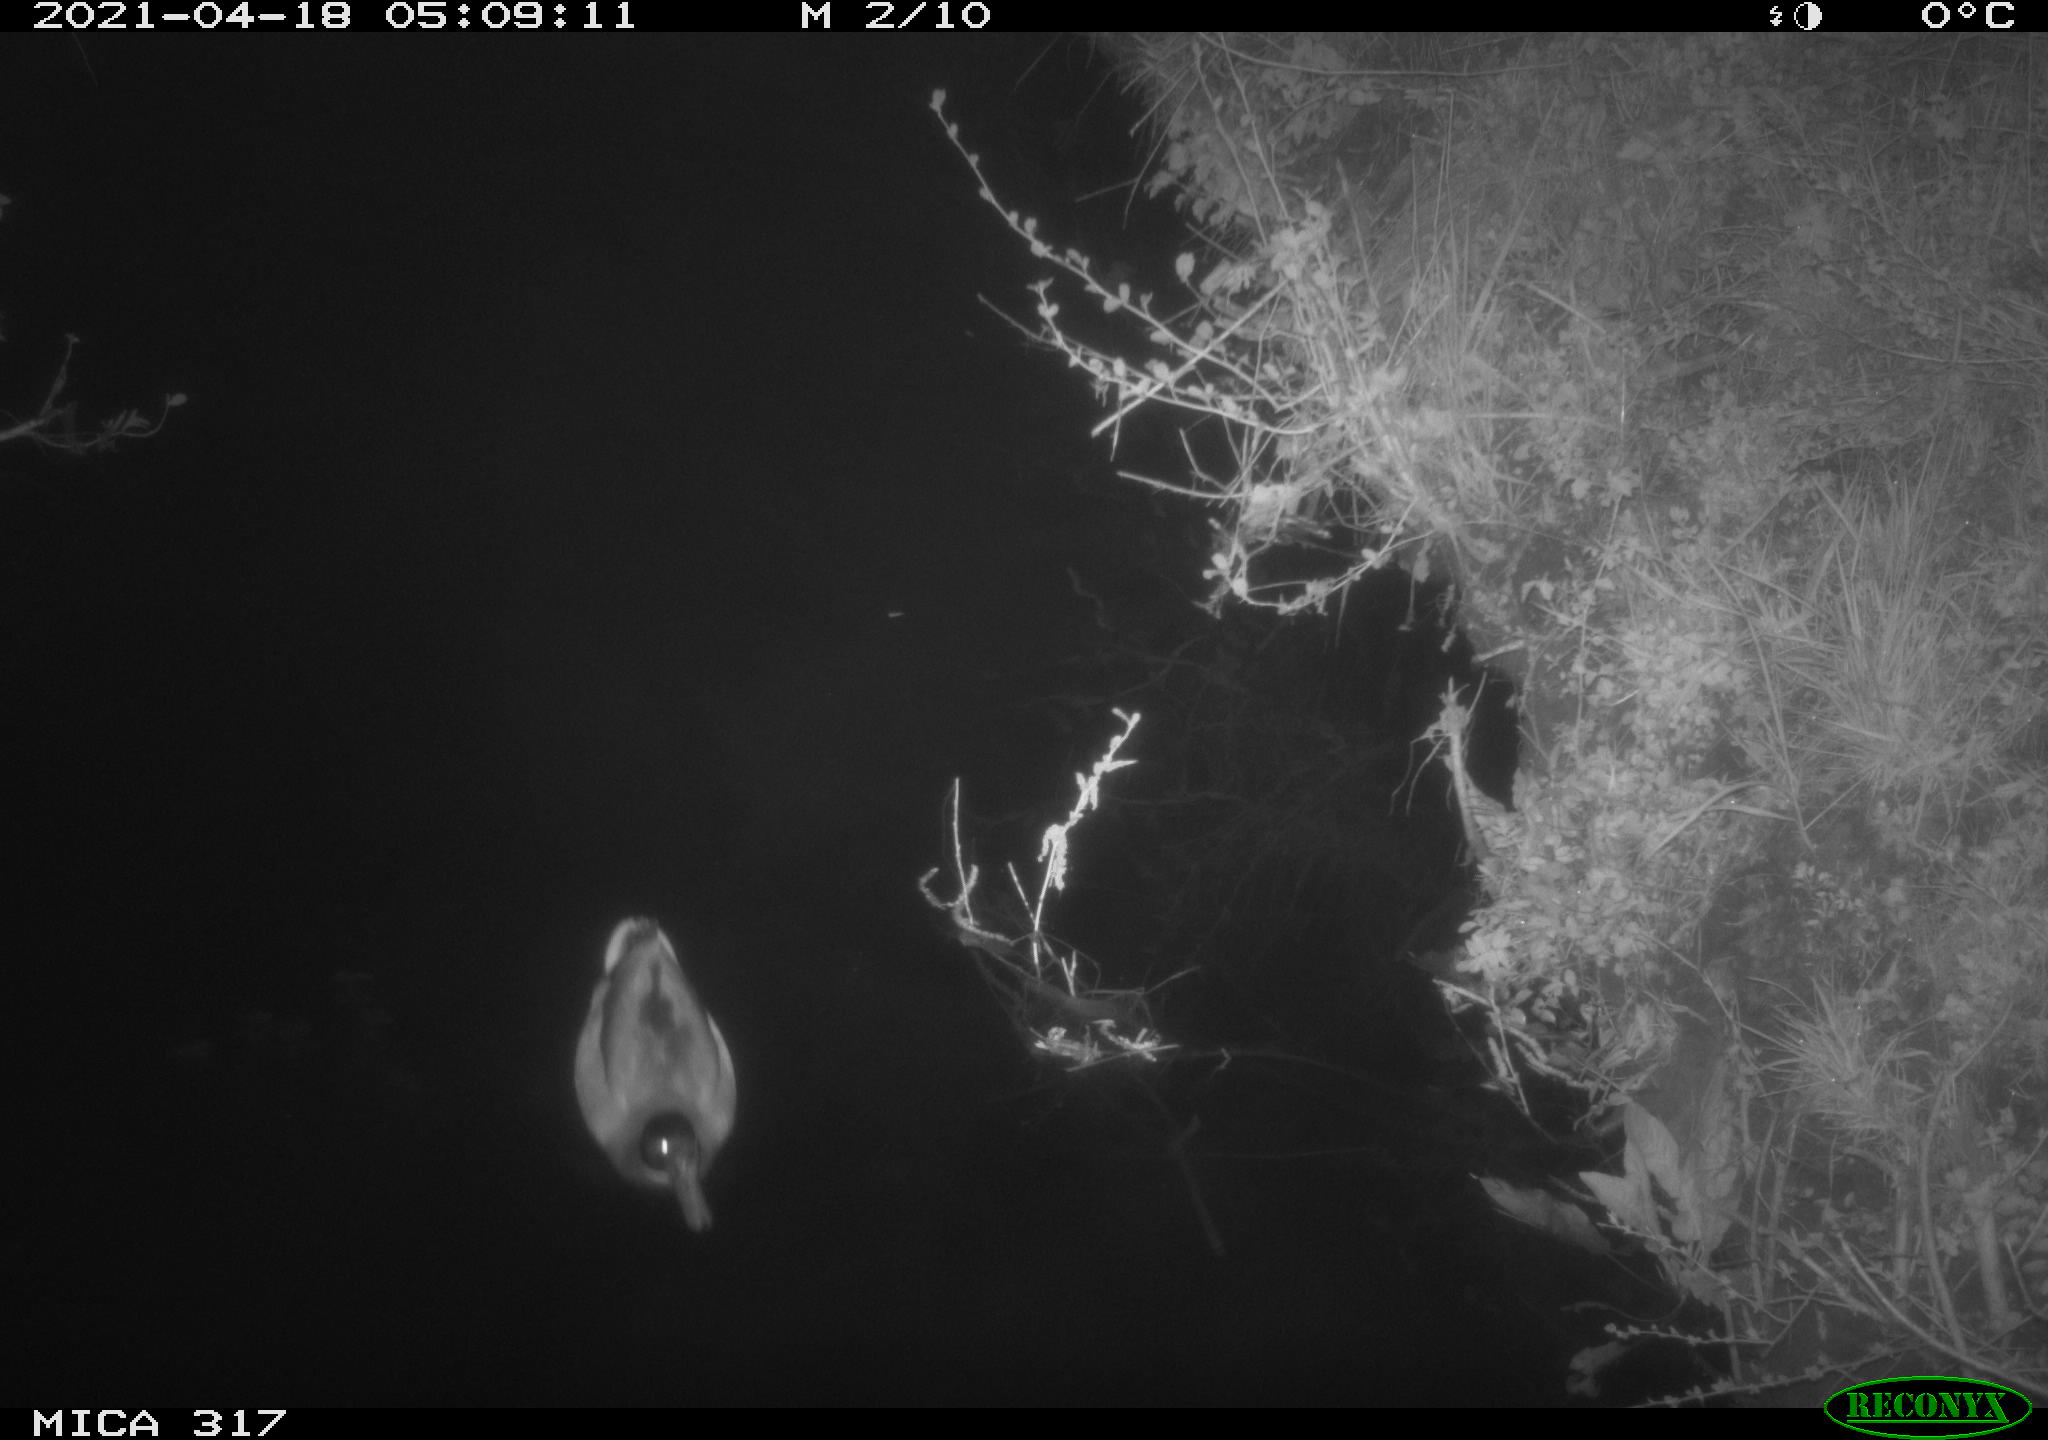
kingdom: Animalia
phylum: Chordata
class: Aves
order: Anseriformes
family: Anatidae
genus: Anas
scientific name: Anas platyrhynchos
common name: Mallard
